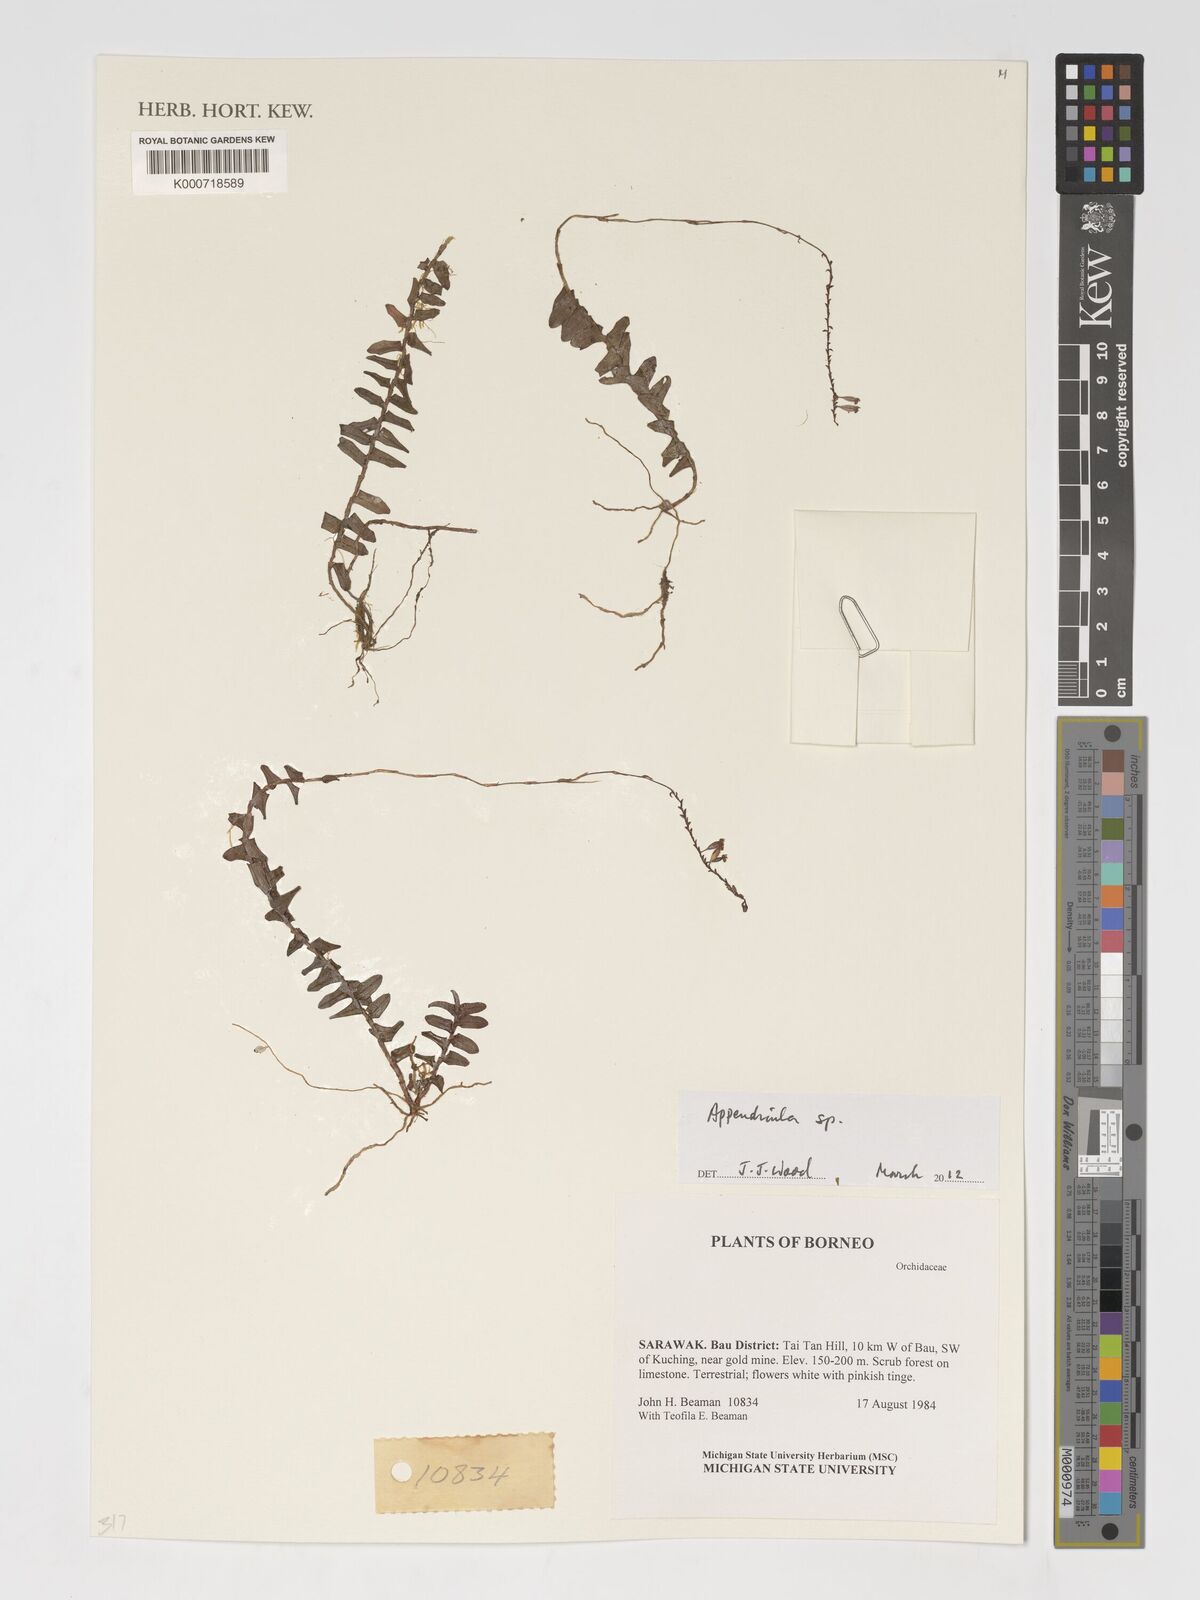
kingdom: Plantae
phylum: Tracheophyta
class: Liliopsida
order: Asparagales
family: Orchidaceae
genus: Appendicula
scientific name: Appendicula
